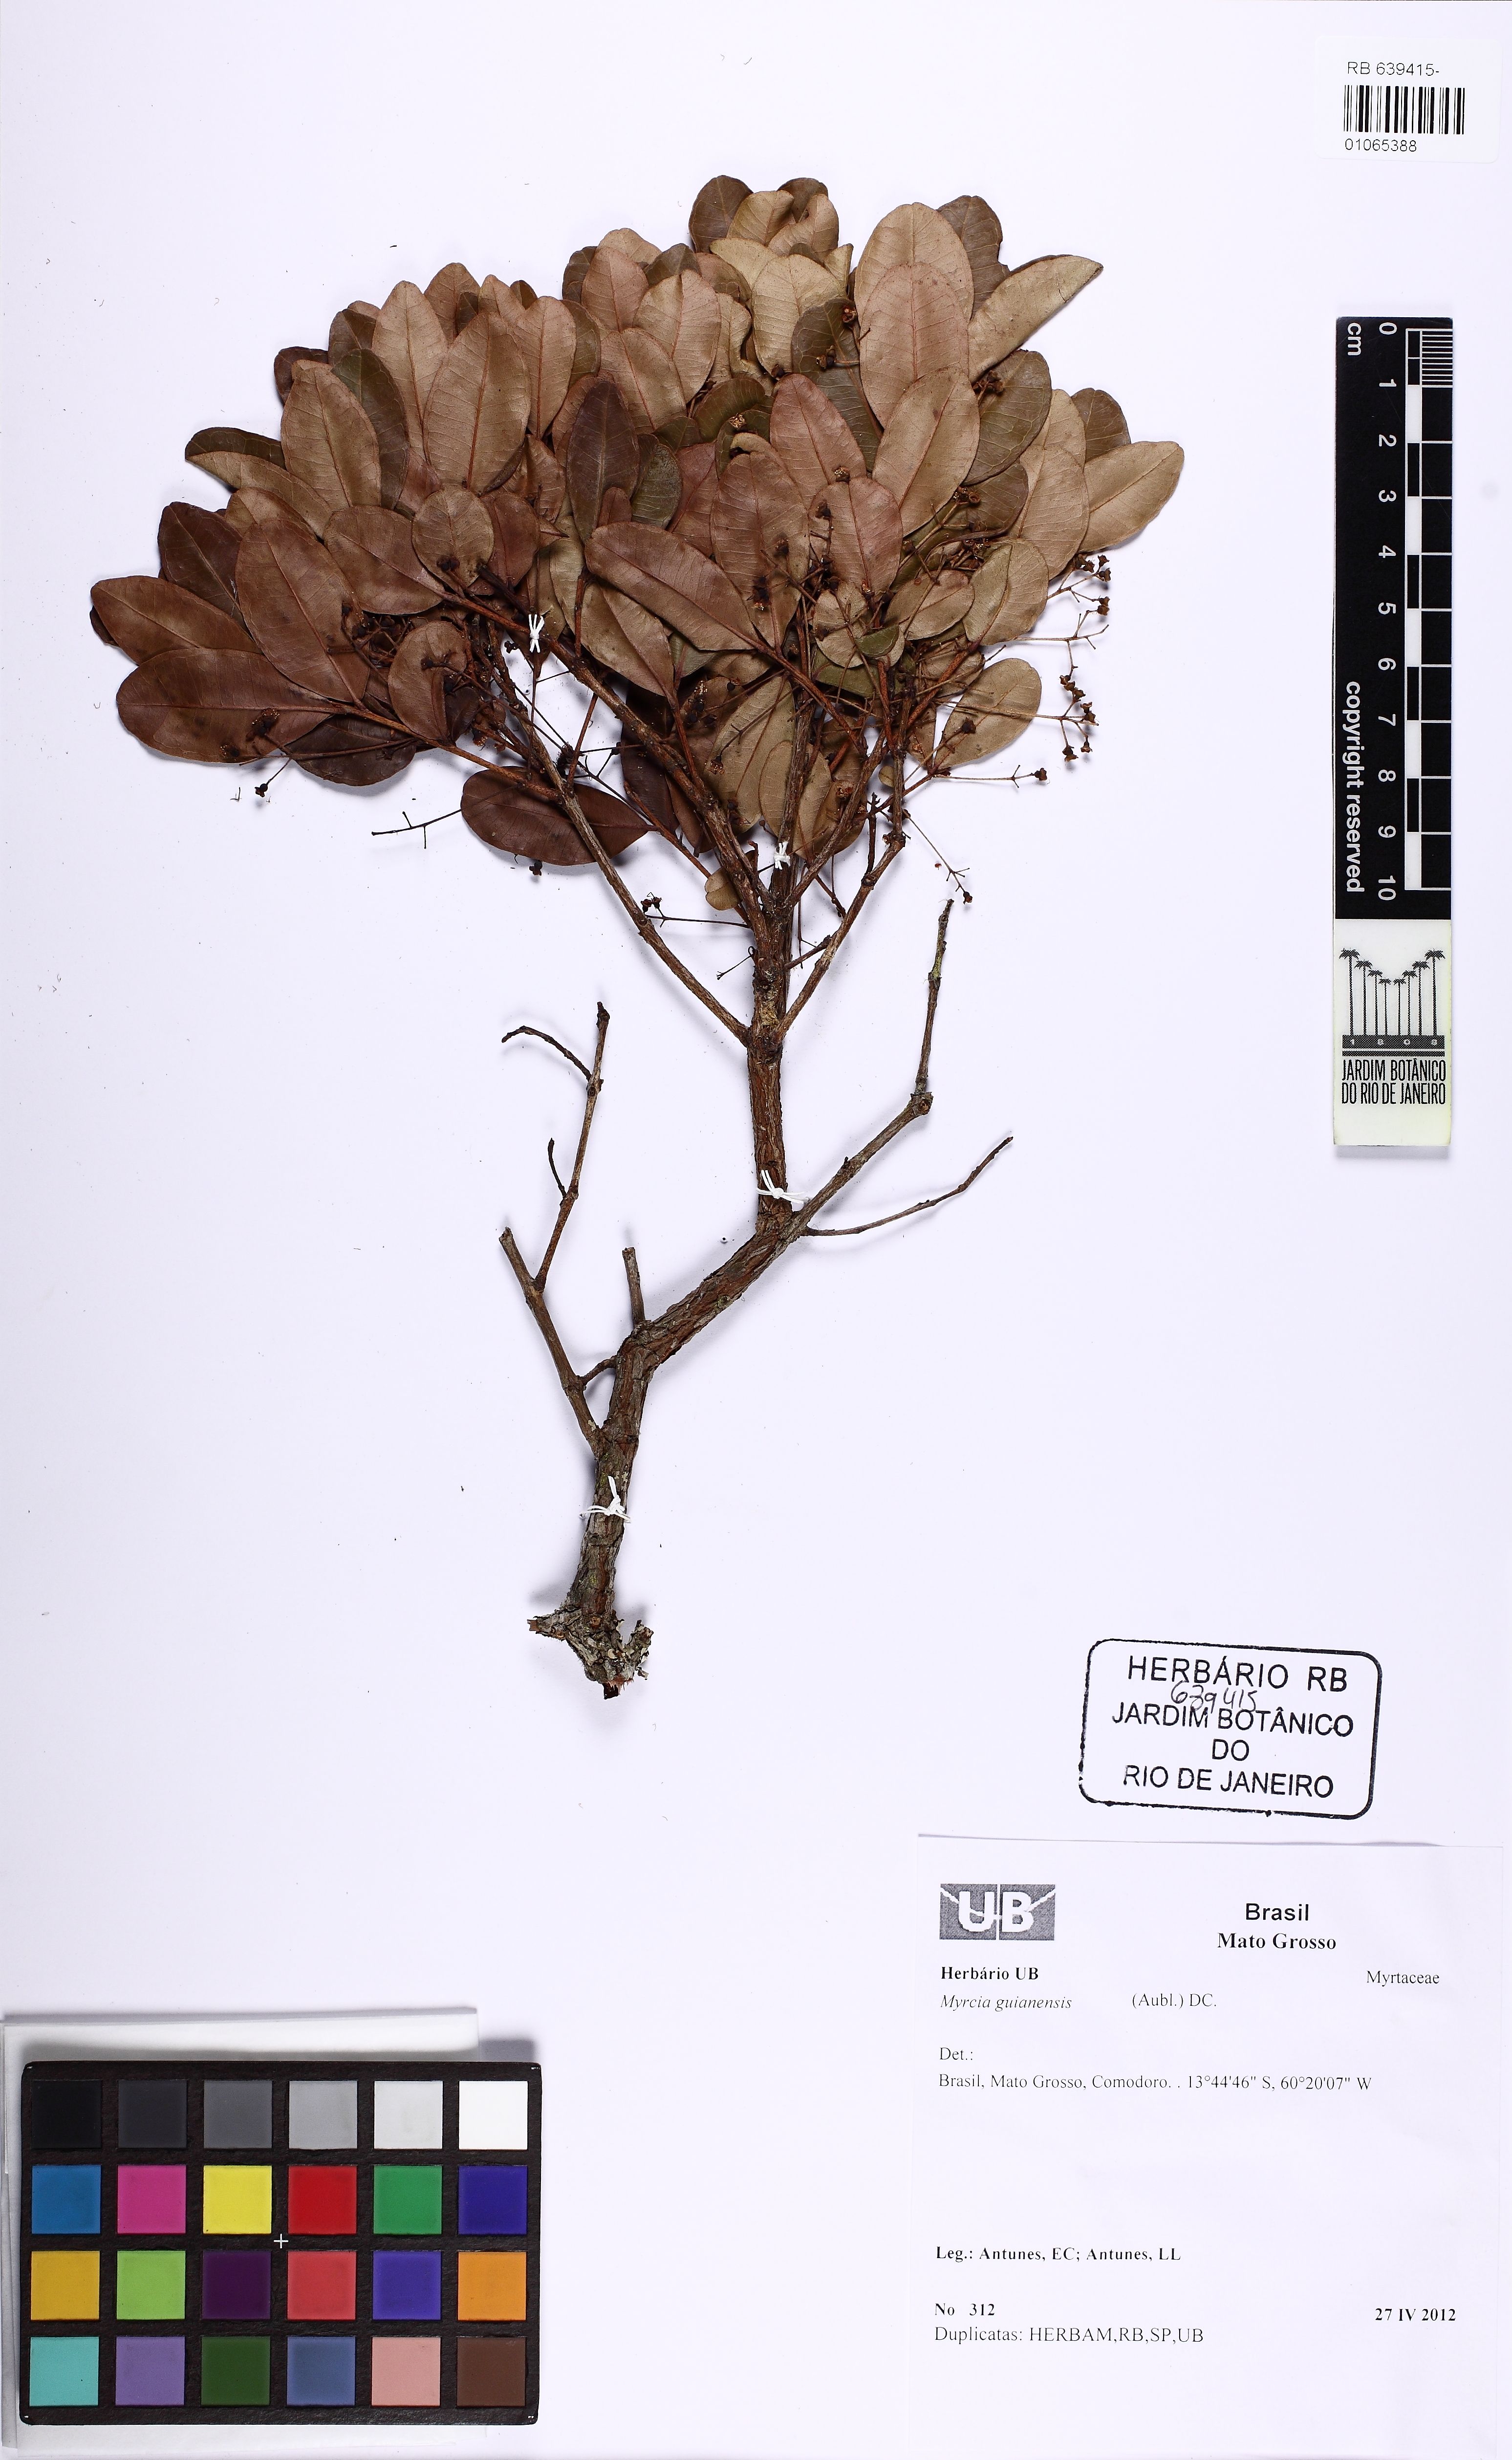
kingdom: Plantae
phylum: Tracheophyta
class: Magnoliopsida
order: Myrtales
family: Myrtaceae
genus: Myrcia
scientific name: Myrcia guianensis
